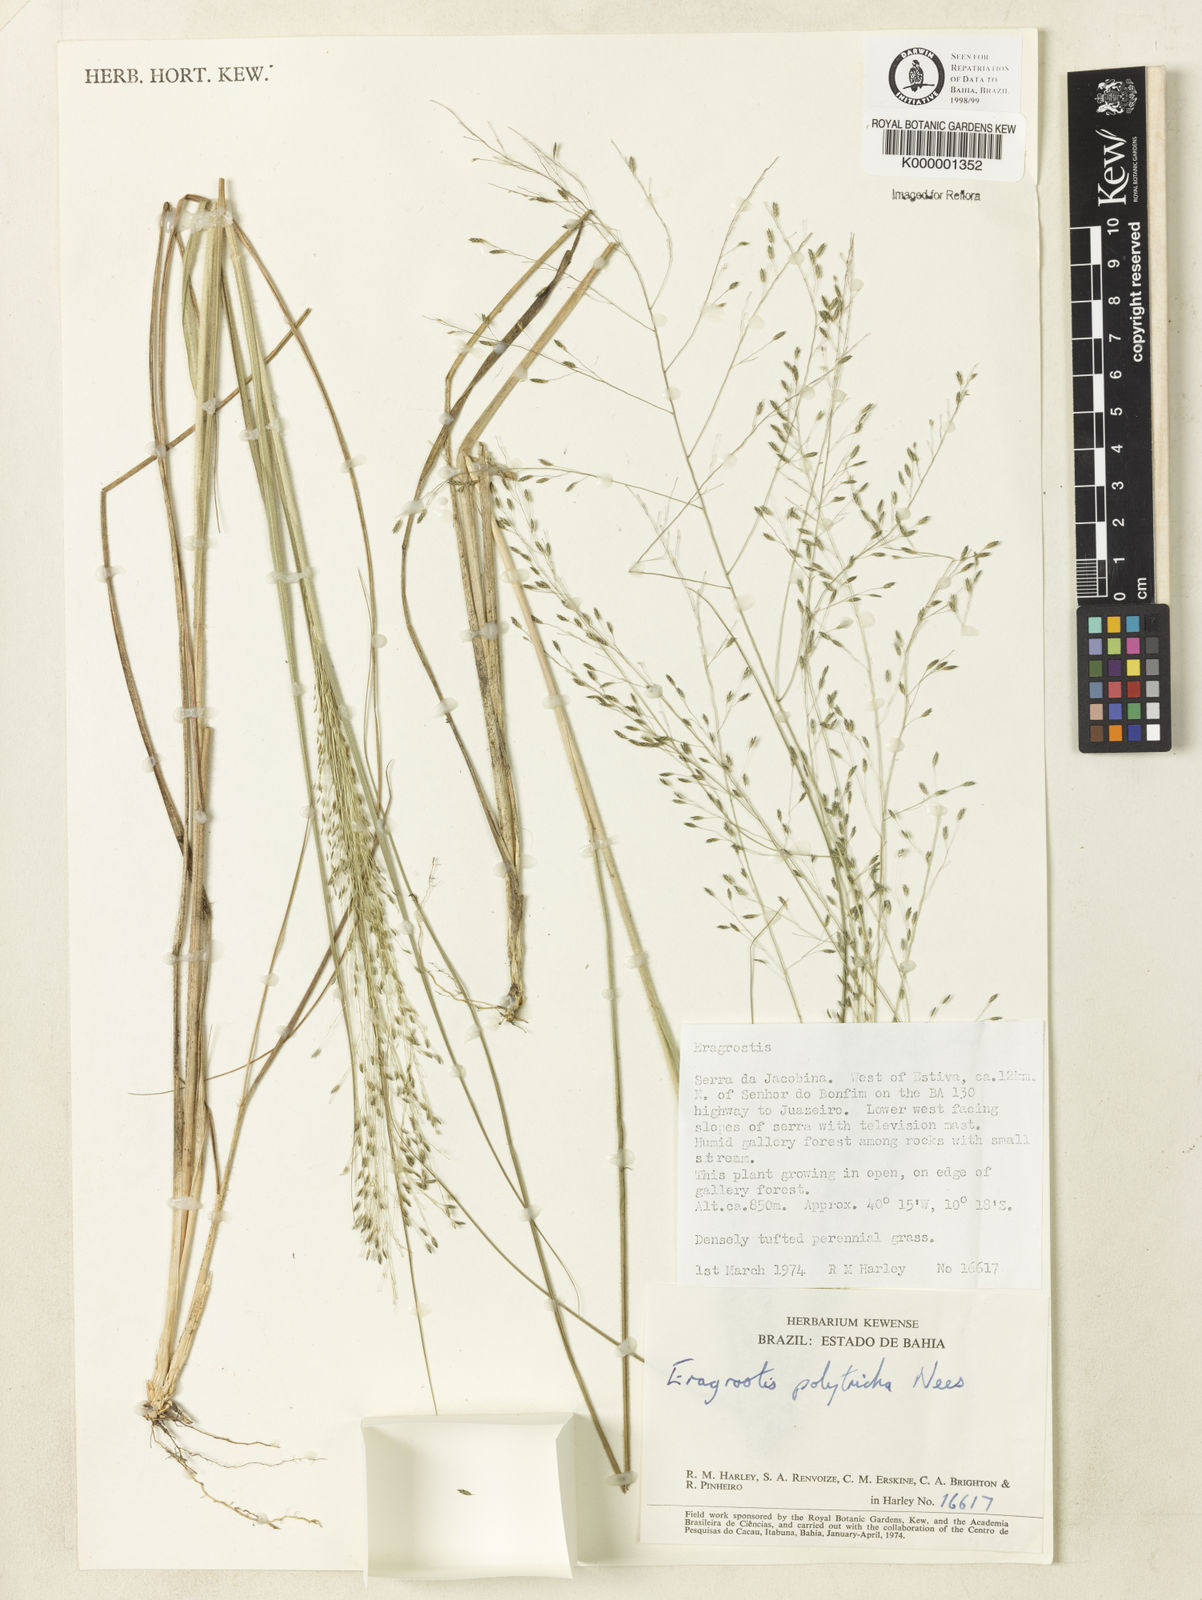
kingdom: Plantae
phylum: Tracheophyta
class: Liliopsida
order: Poales
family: Poaceae
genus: Eragrostis
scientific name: Eragrostis polytricha
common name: Hairy-sheath love grass
